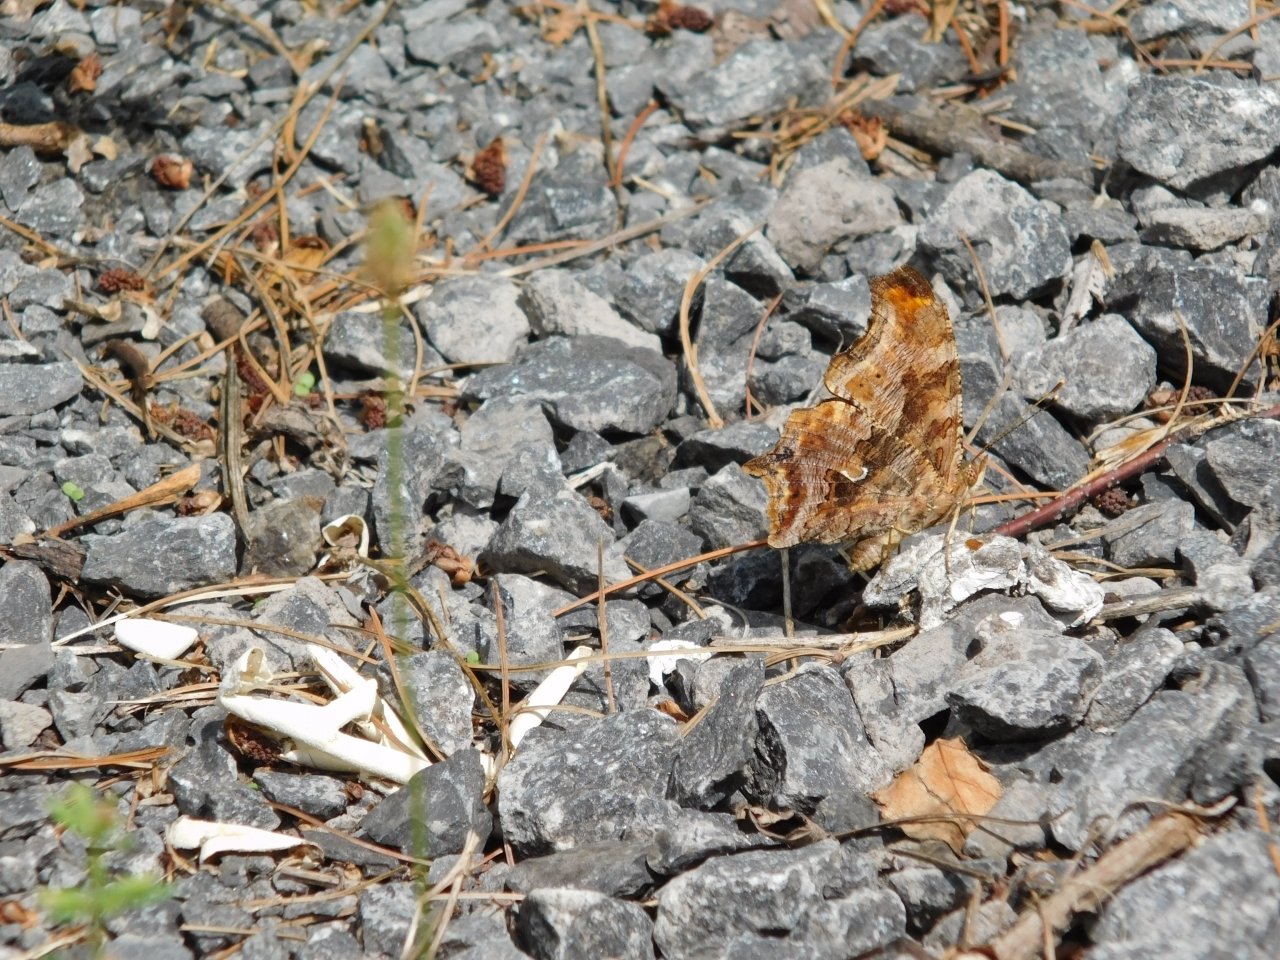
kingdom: Animalia
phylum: Arthropoda
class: Insecta
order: Lepidoptera
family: Nymphalidae
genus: Polygonia
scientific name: Polygonia comma
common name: Eastern Comma
